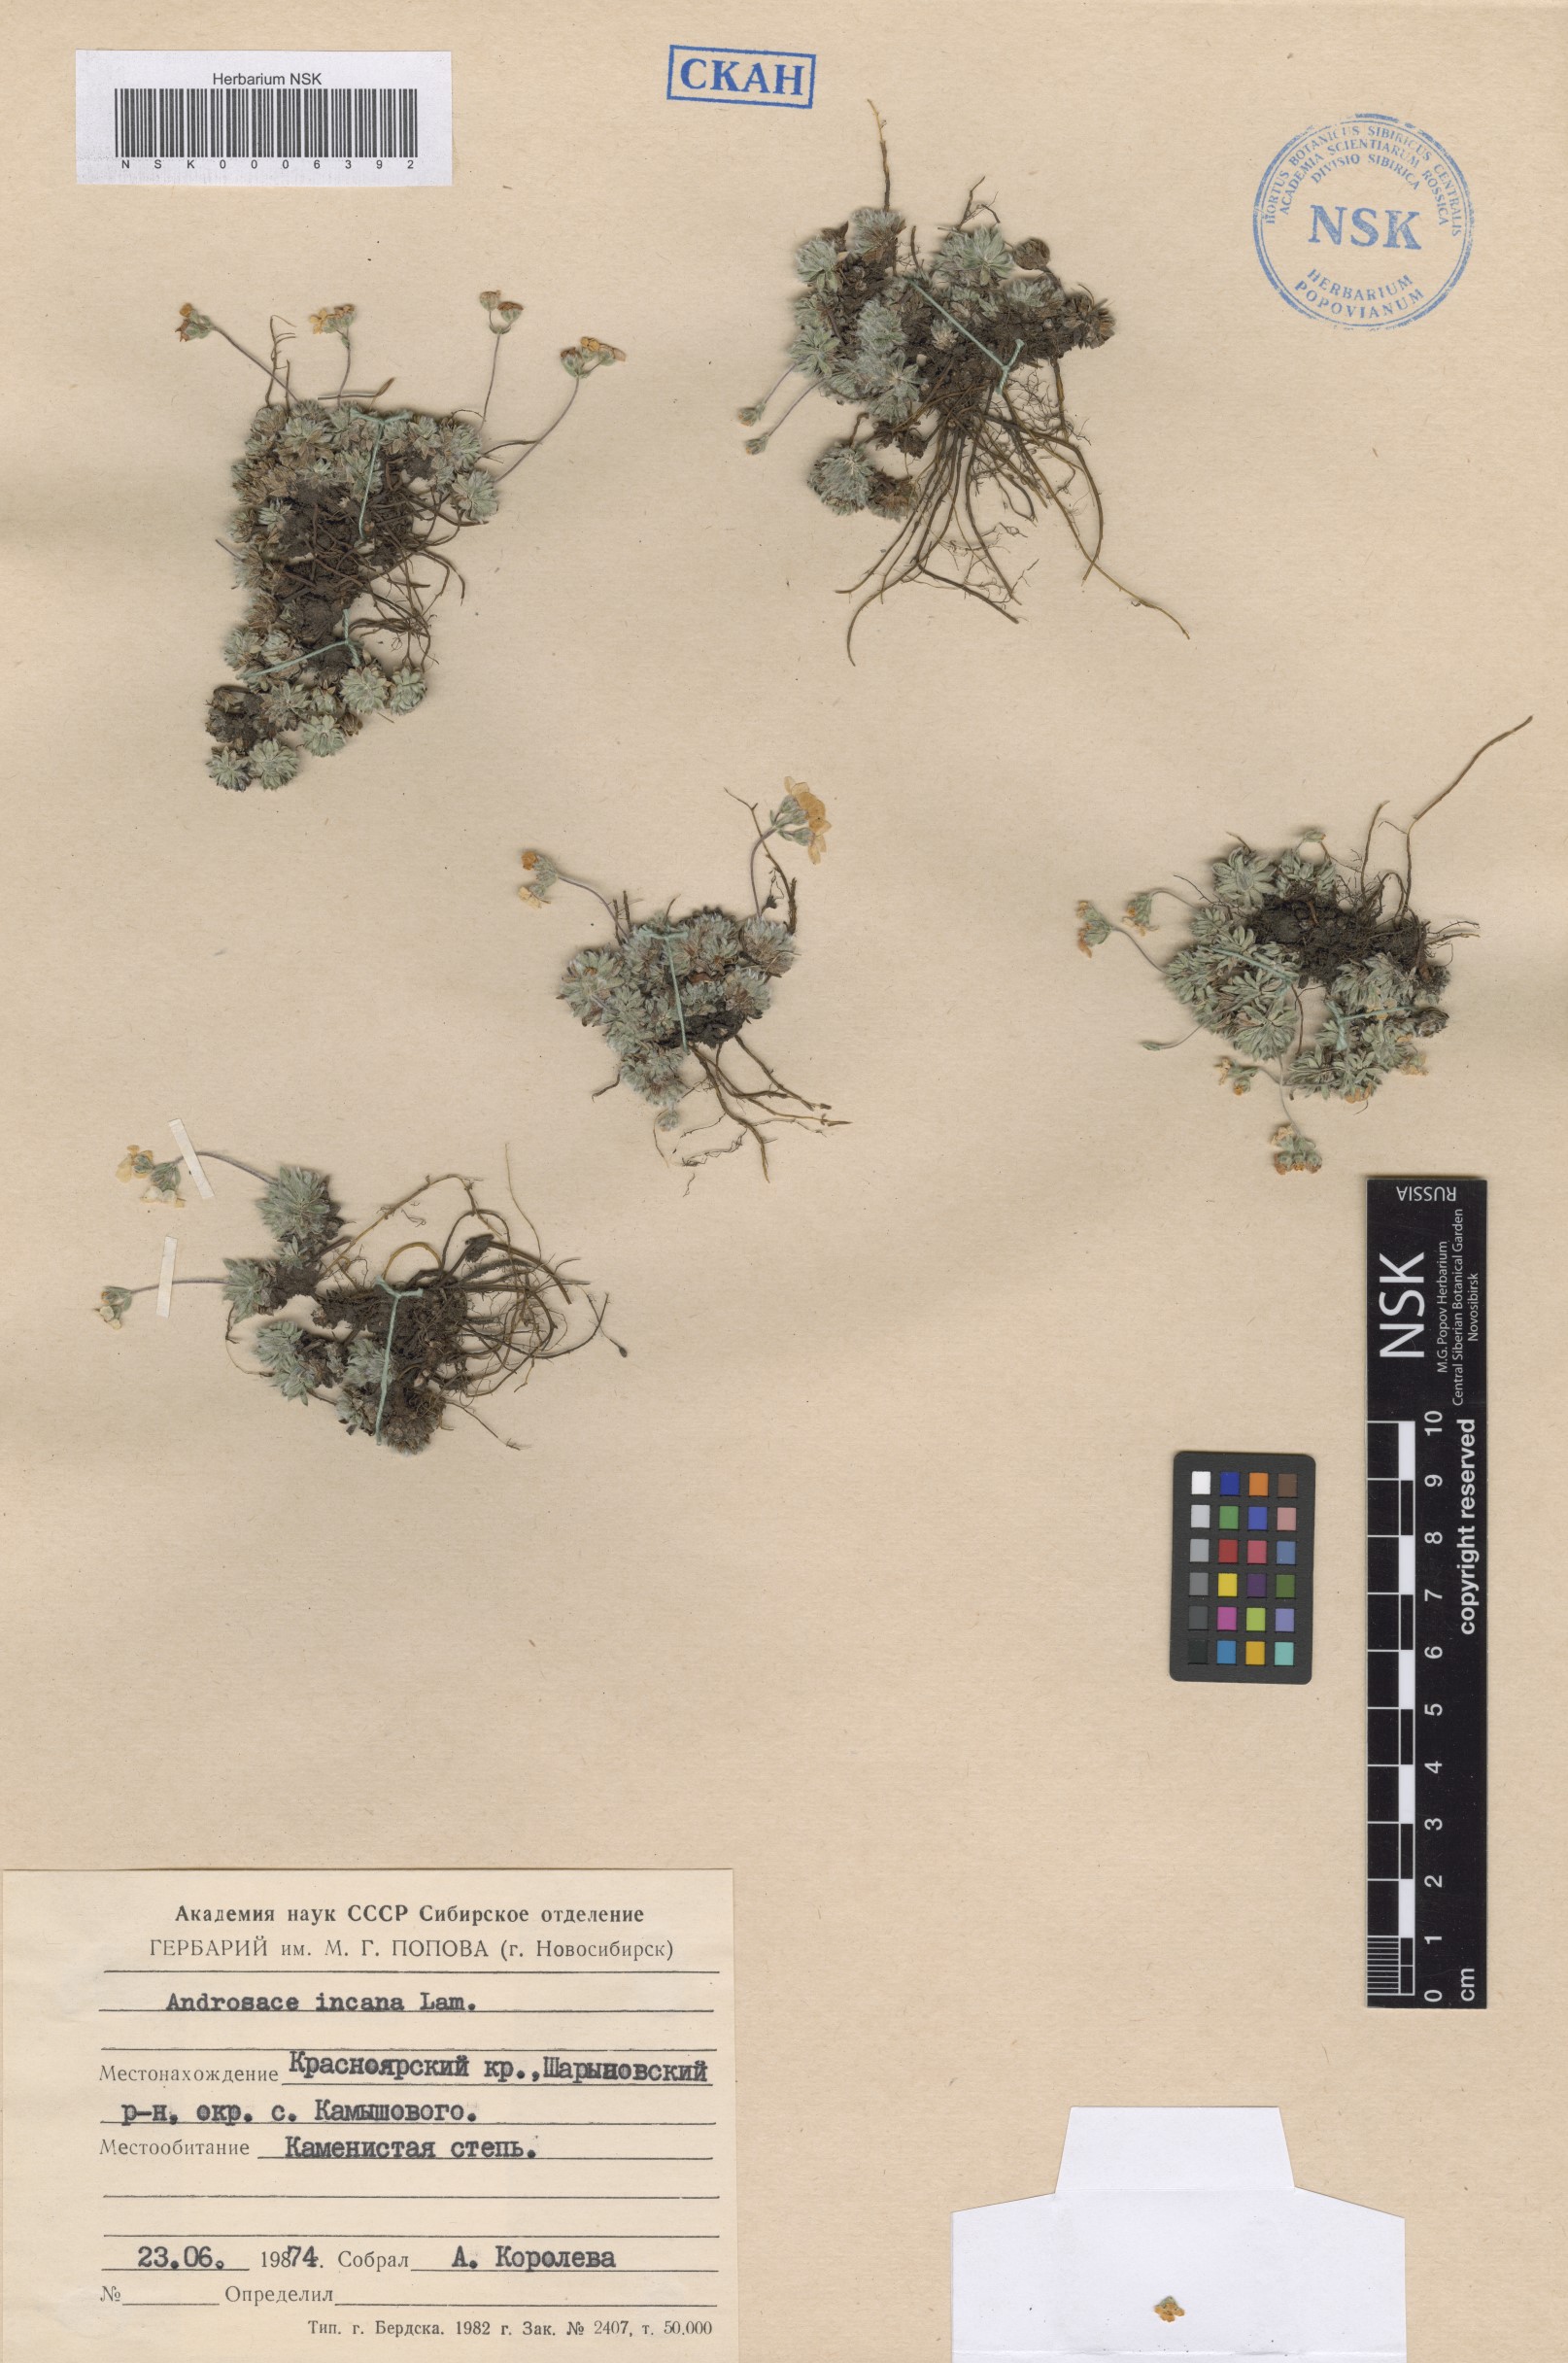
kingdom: Plantae
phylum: Tracheophyta
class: Magnoliopsida
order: Ericales
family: Primulaceae
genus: Androsace
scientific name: Androsace incana
